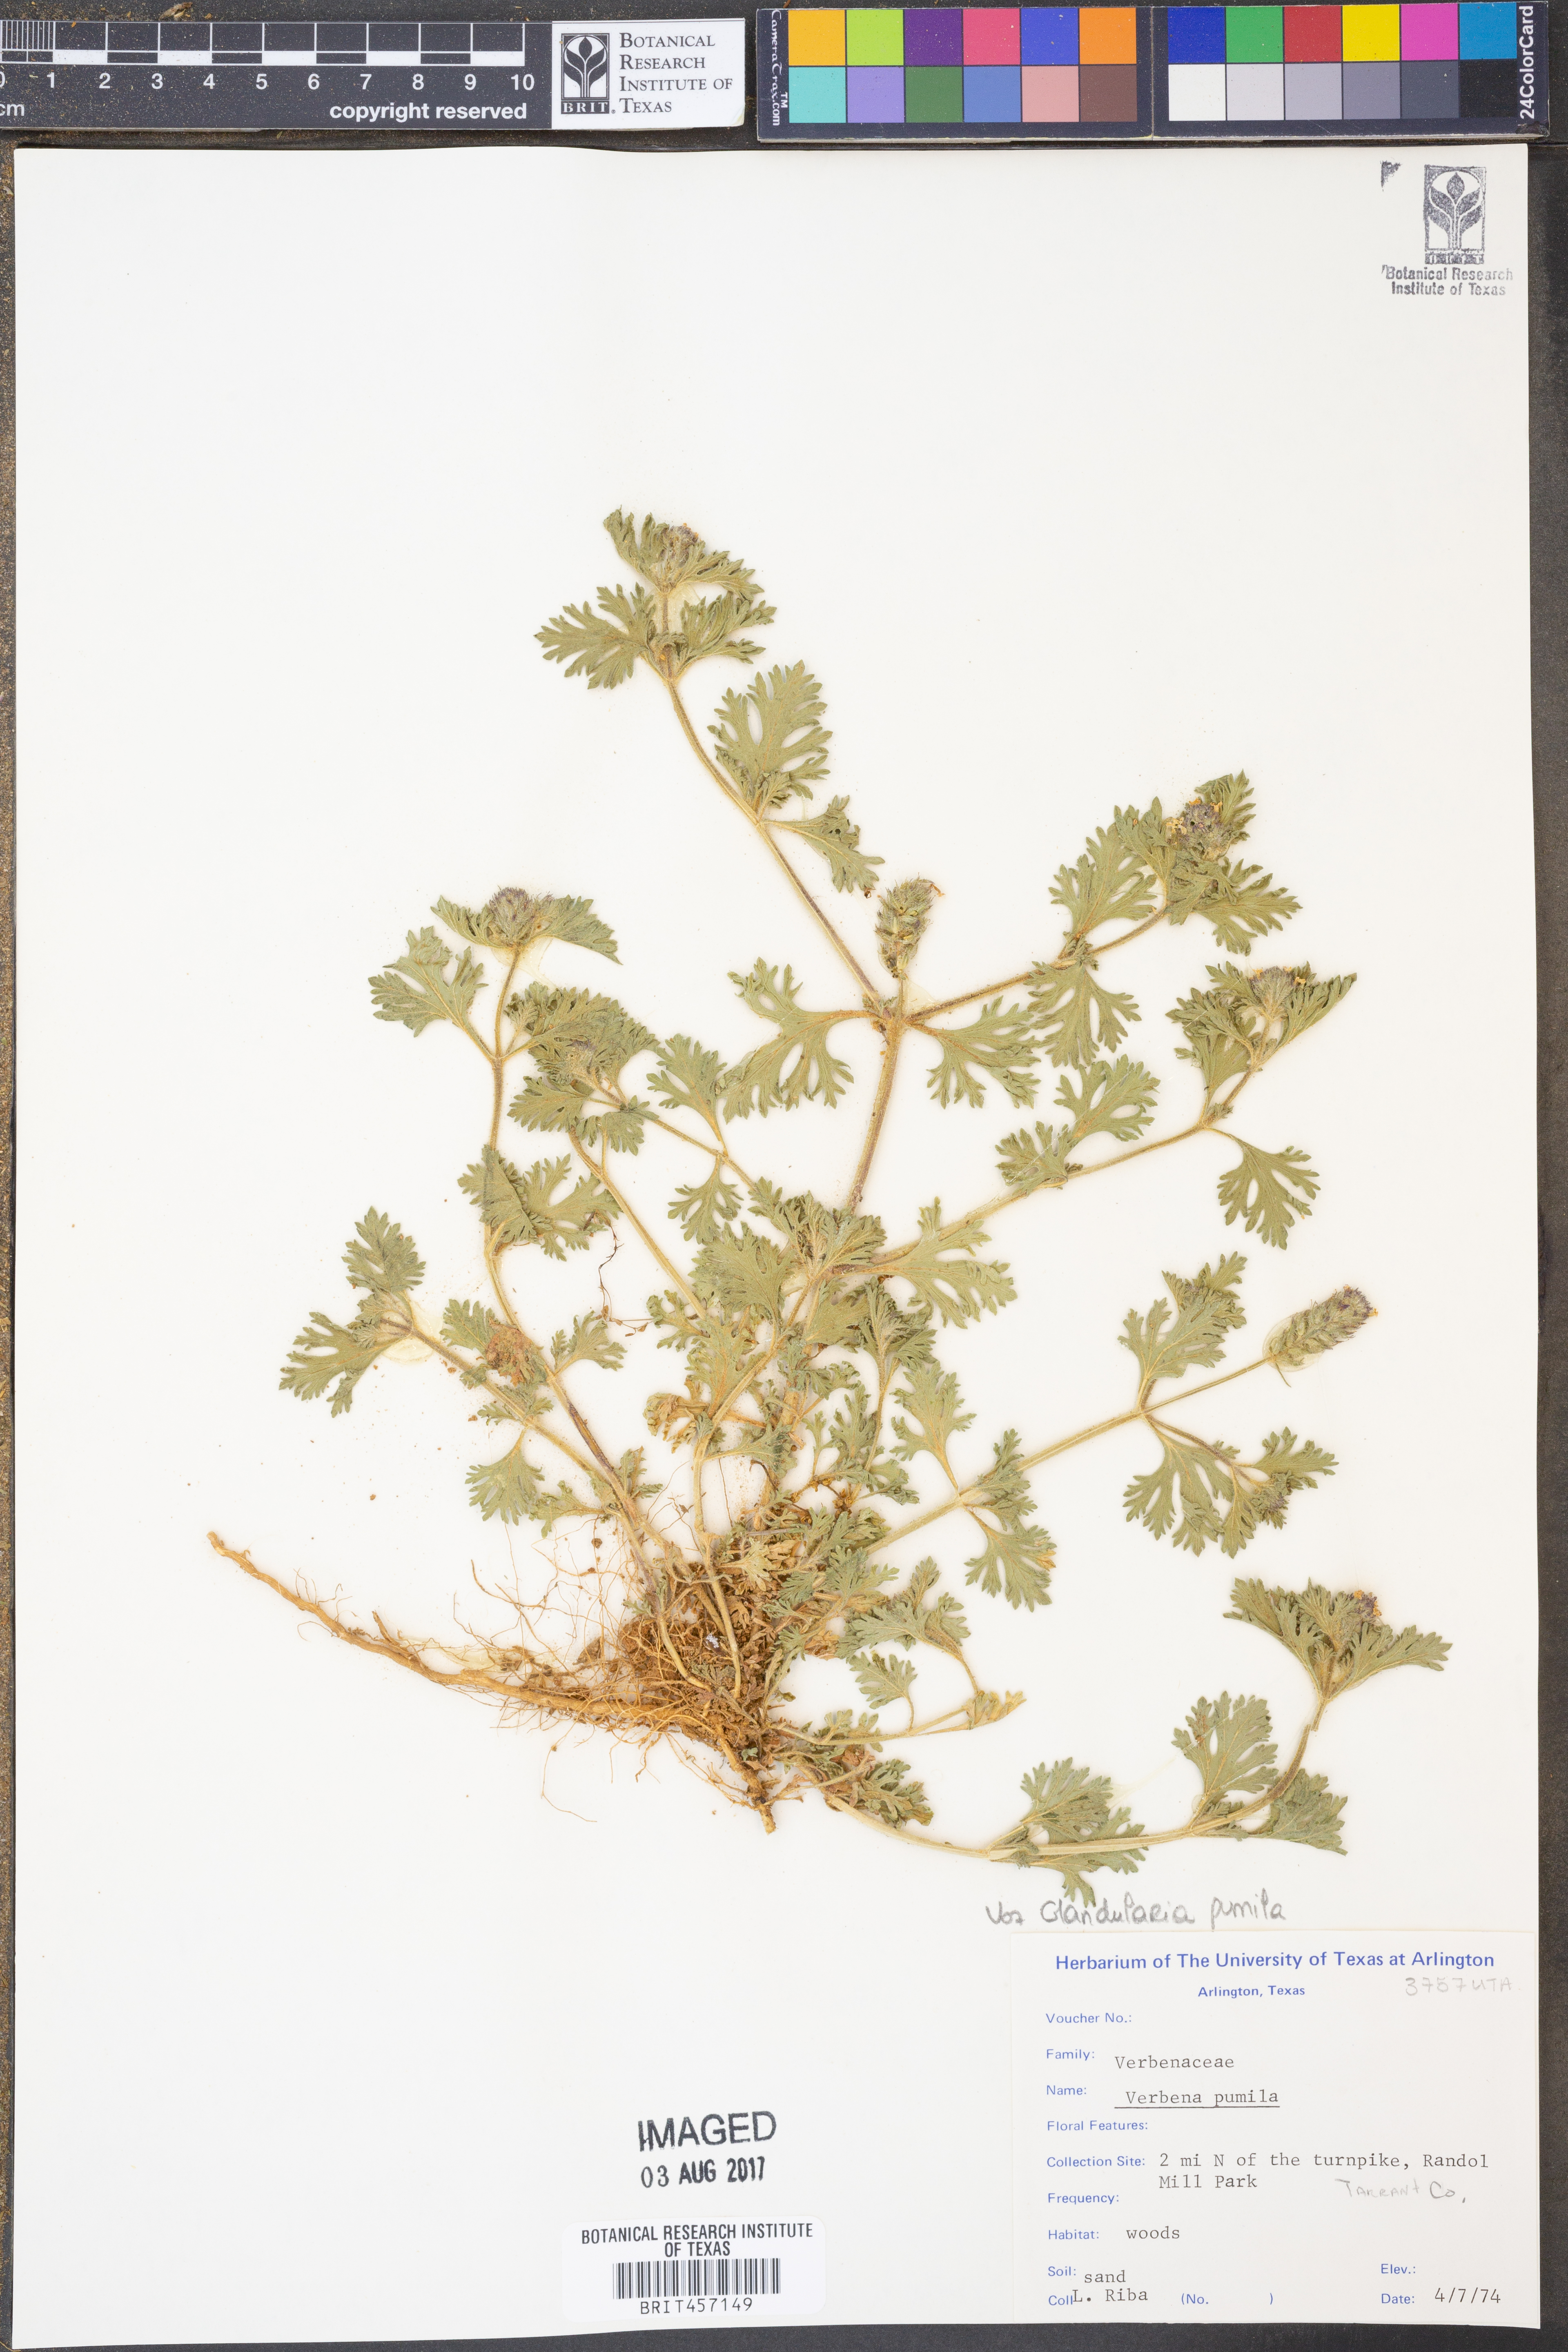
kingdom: Plantae
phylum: Tracheophyta
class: Magnoliopsida
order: Lamiales
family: Verbenaceae
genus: Verbena
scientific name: Verbena pumila
